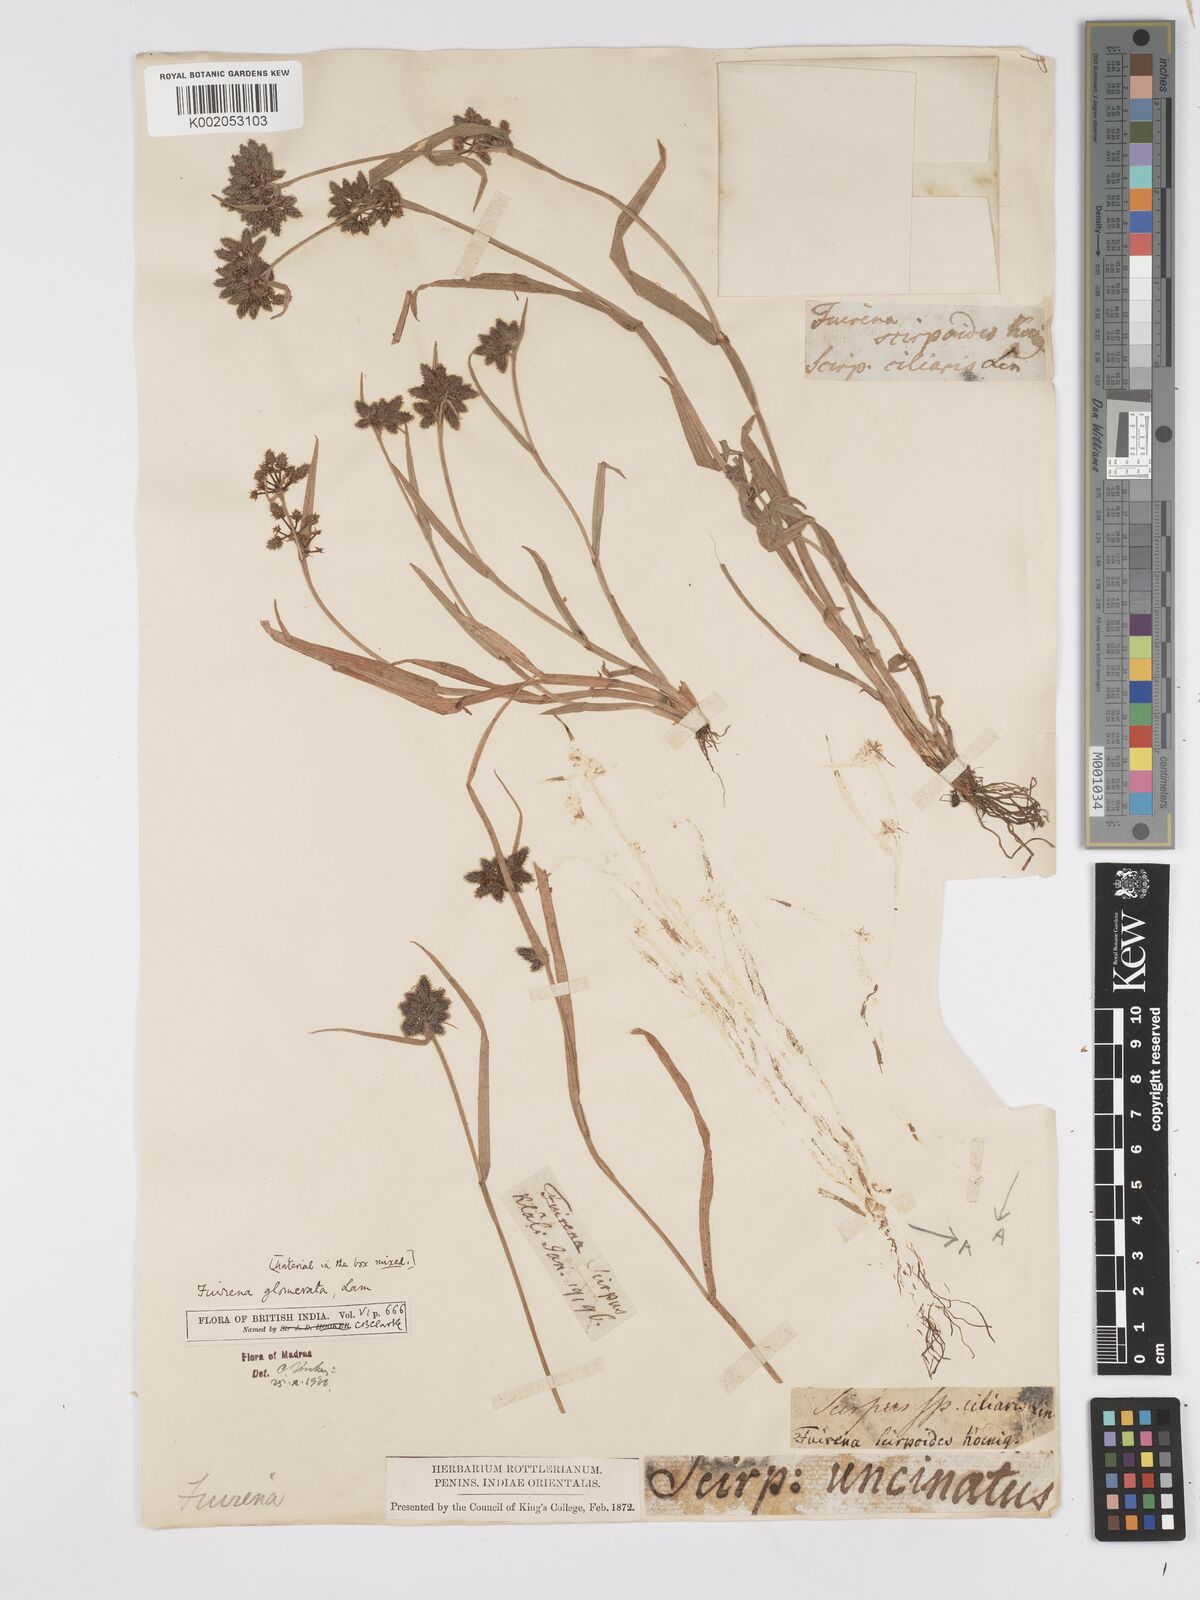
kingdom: Plantae
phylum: Tracheophyta
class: Liliopsida
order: Poales
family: Cyperaceae
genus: Fuirena
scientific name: Fuirena ciliaris
